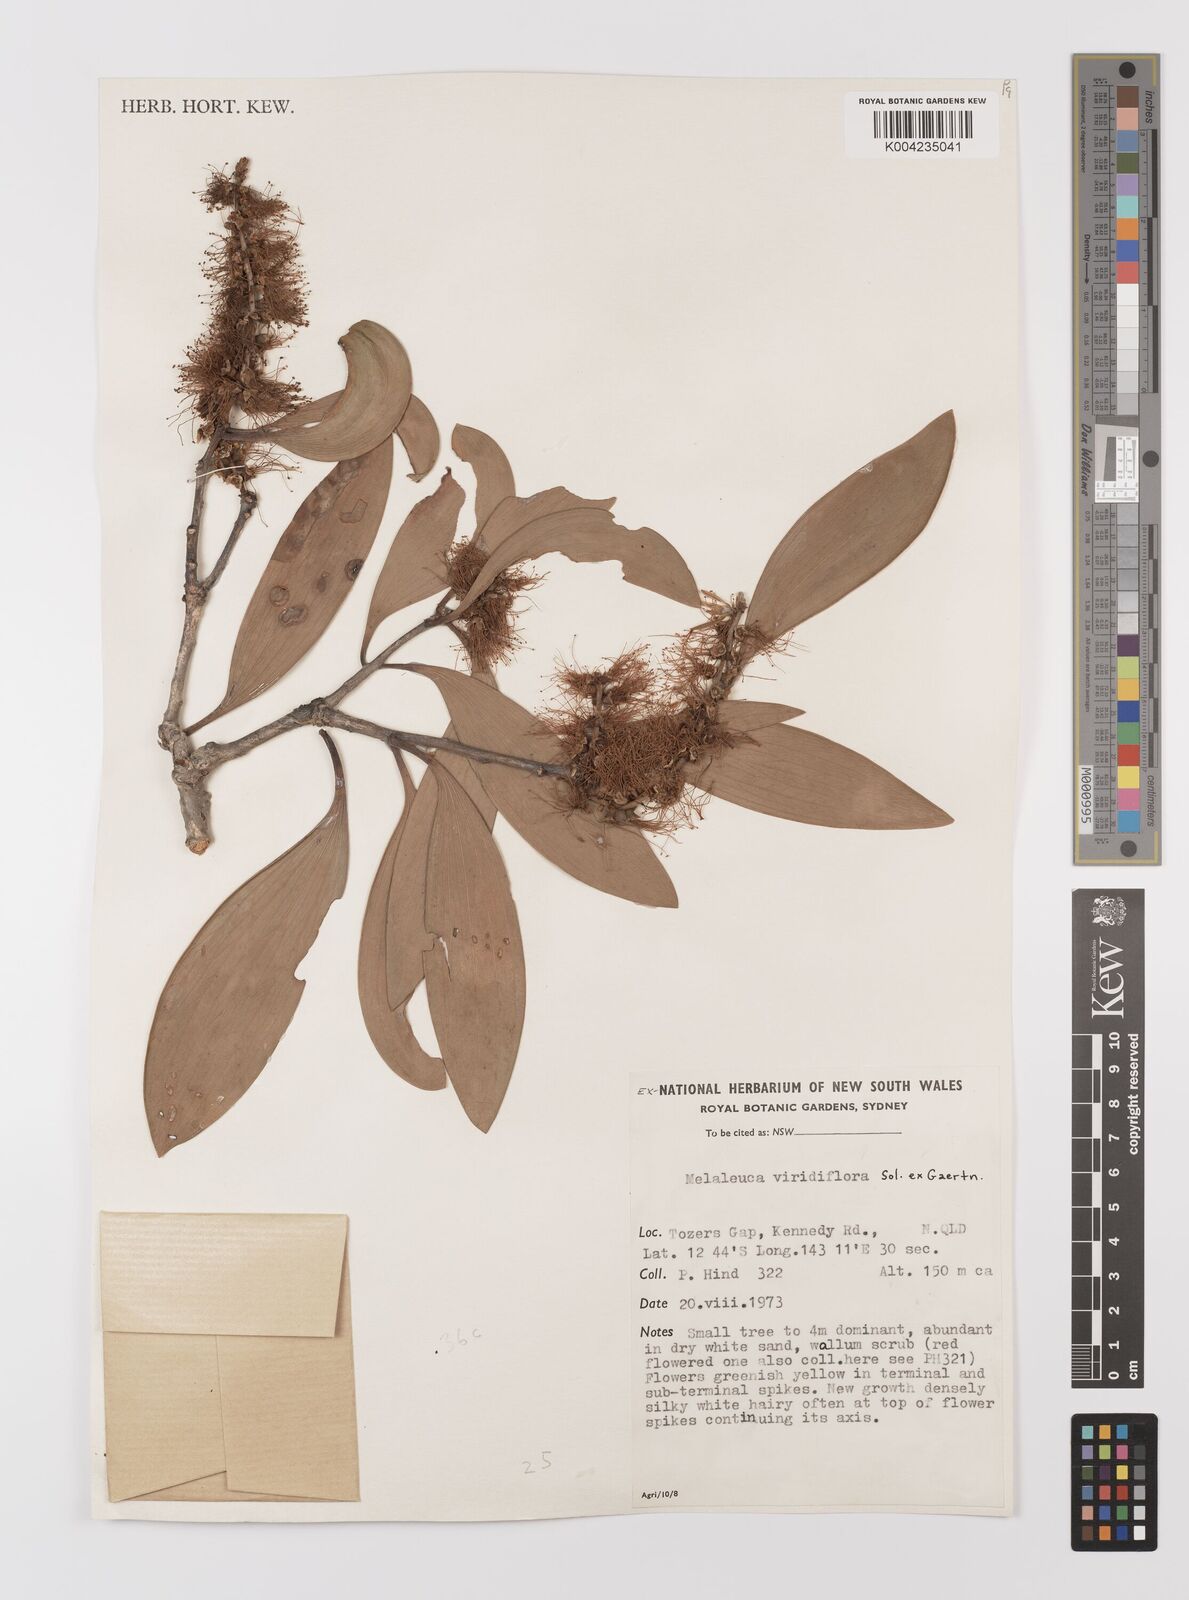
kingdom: Plantae
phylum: Tracheophyta
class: Magnoliopsida
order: Myrtales
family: Myrtaceae
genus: Melaleuca
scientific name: Melaleuca viridiflora
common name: Brown-leaved paperbark
